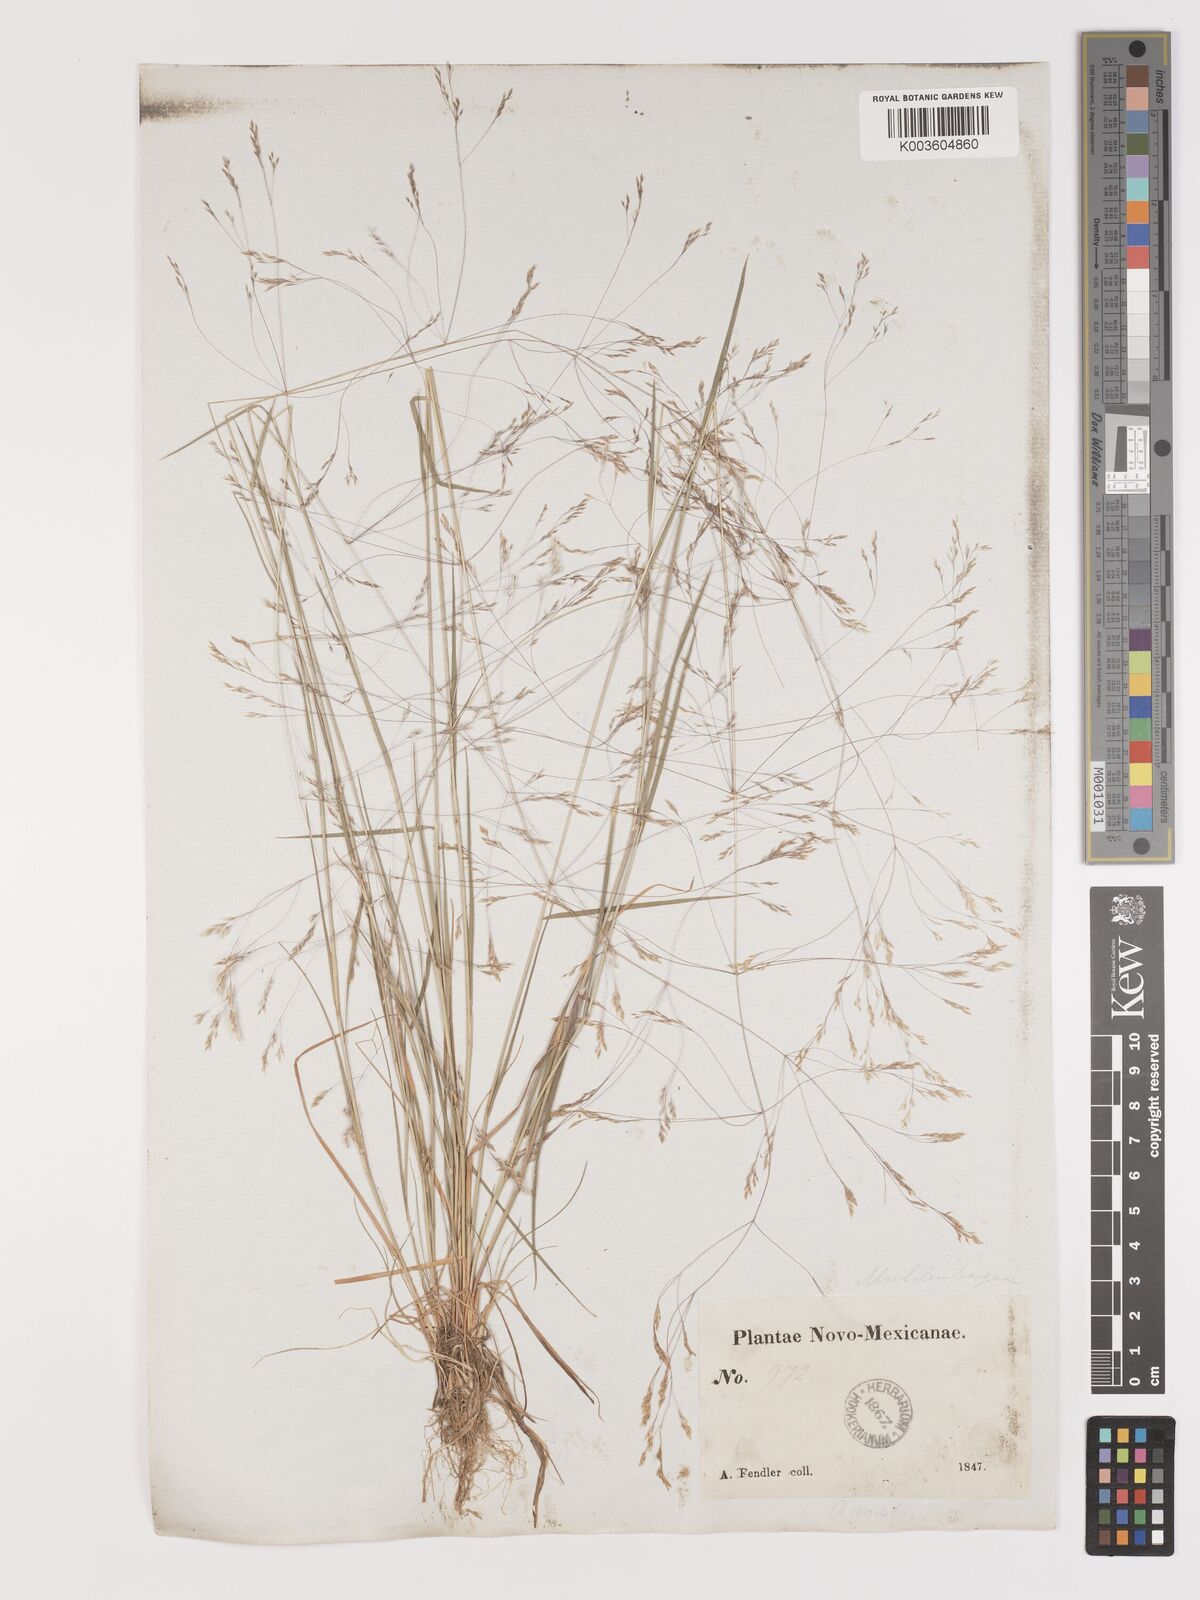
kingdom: Plantae
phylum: Tracheophyta
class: Liliopsida
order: Poales
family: Poaceae
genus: Agrostis
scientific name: Agrostis
